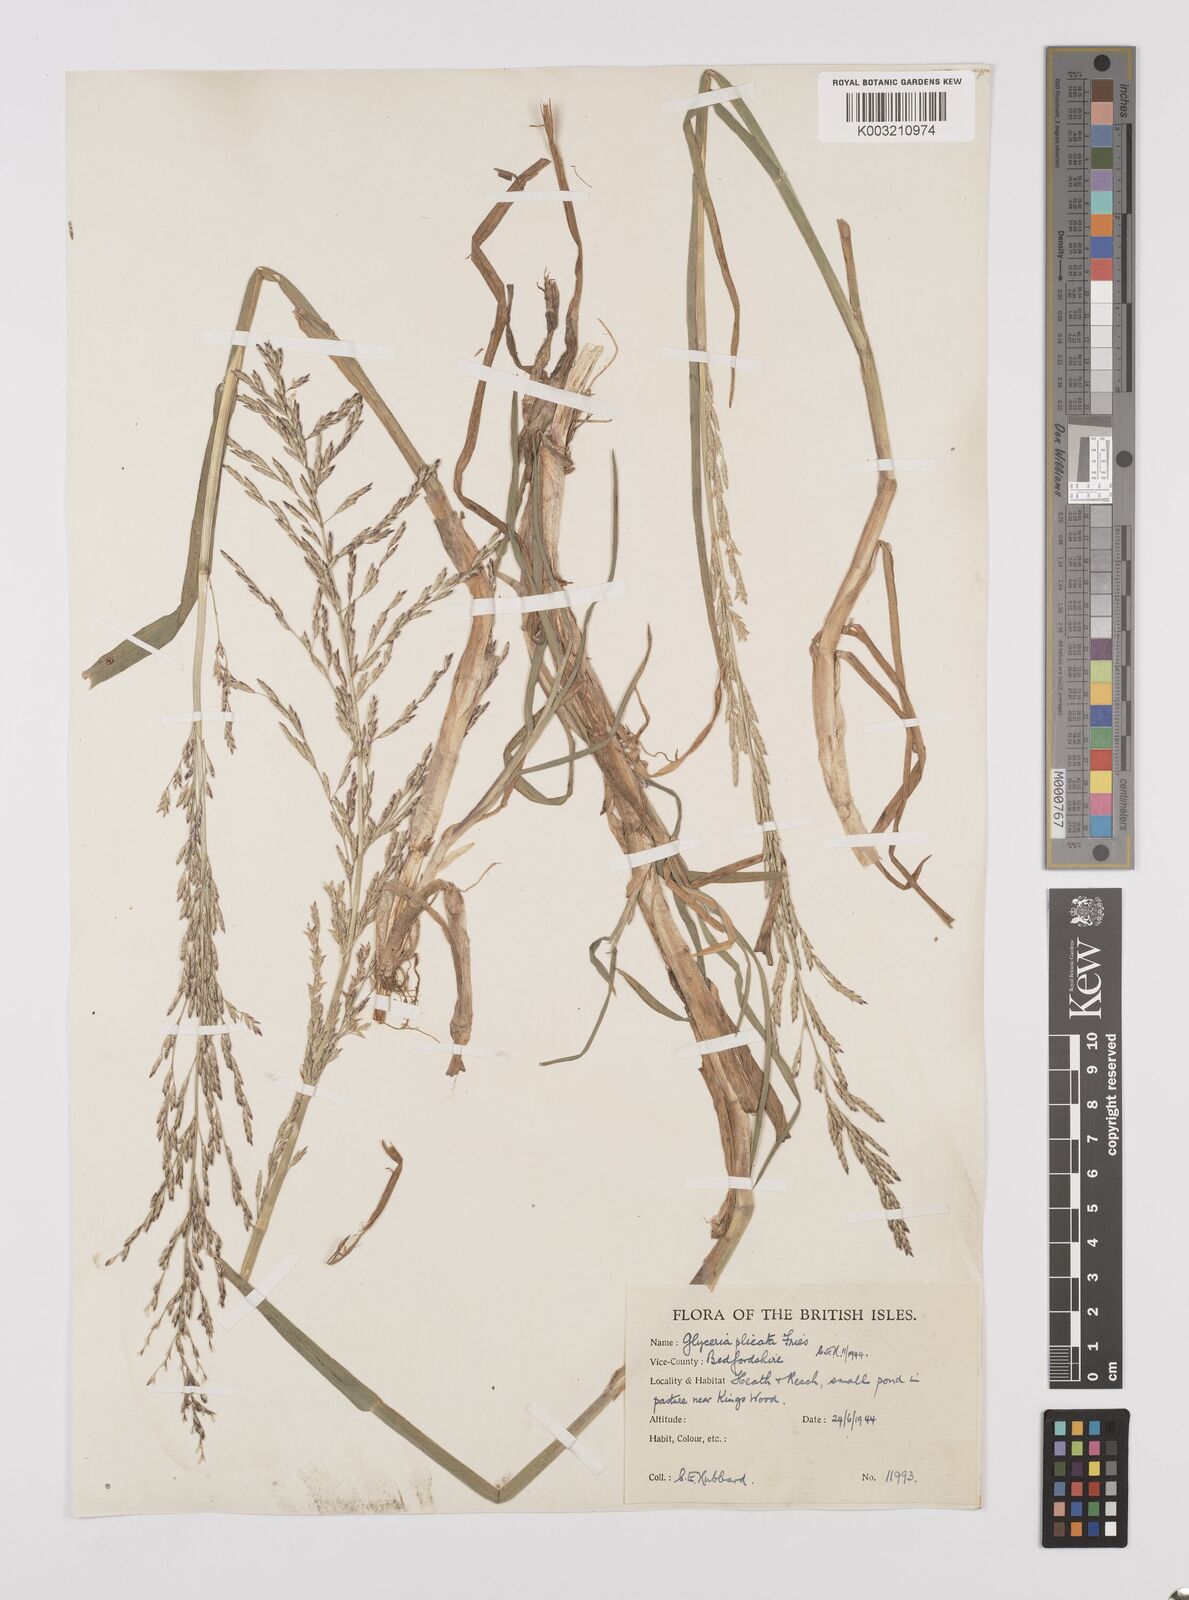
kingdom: Plantae
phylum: Tracheophyta
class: Liliopsida
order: Poales
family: Poaceae
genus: Glyceria
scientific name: Glyceria notata
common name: Plicate sweet-grass
